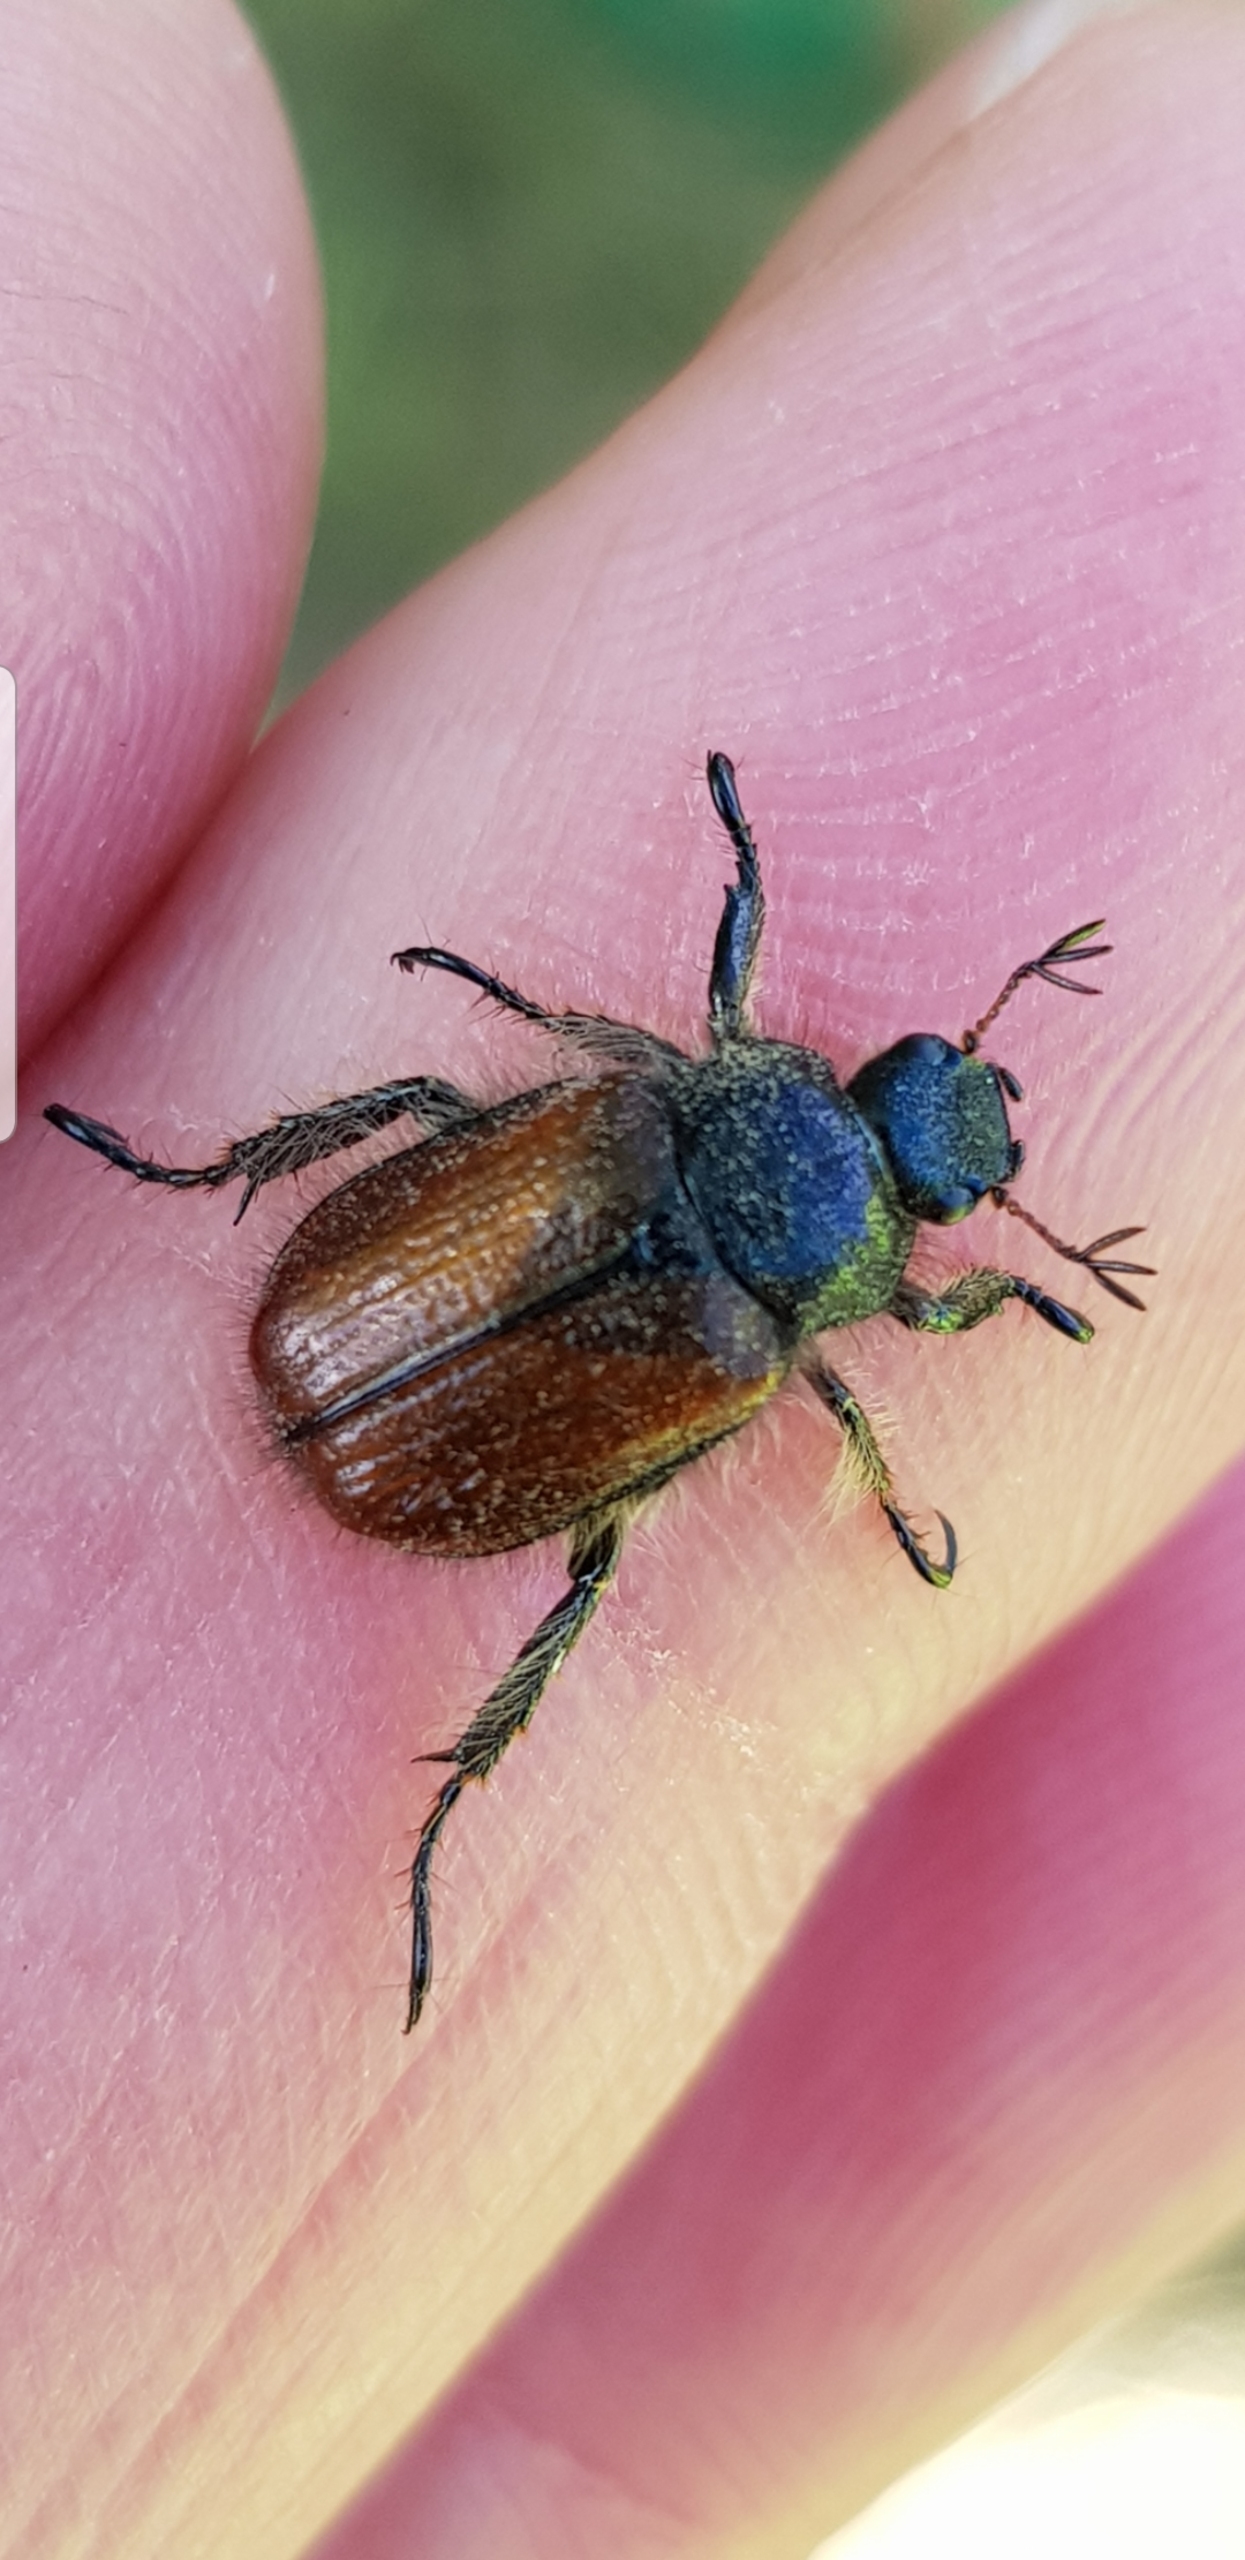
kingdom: Animalia
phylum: Arthropoda
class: Insecta
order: Coleoptera
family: Scarabaeidae
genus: Phyllopertha
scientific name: Phyllopertha horticola
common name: Gåsebille
